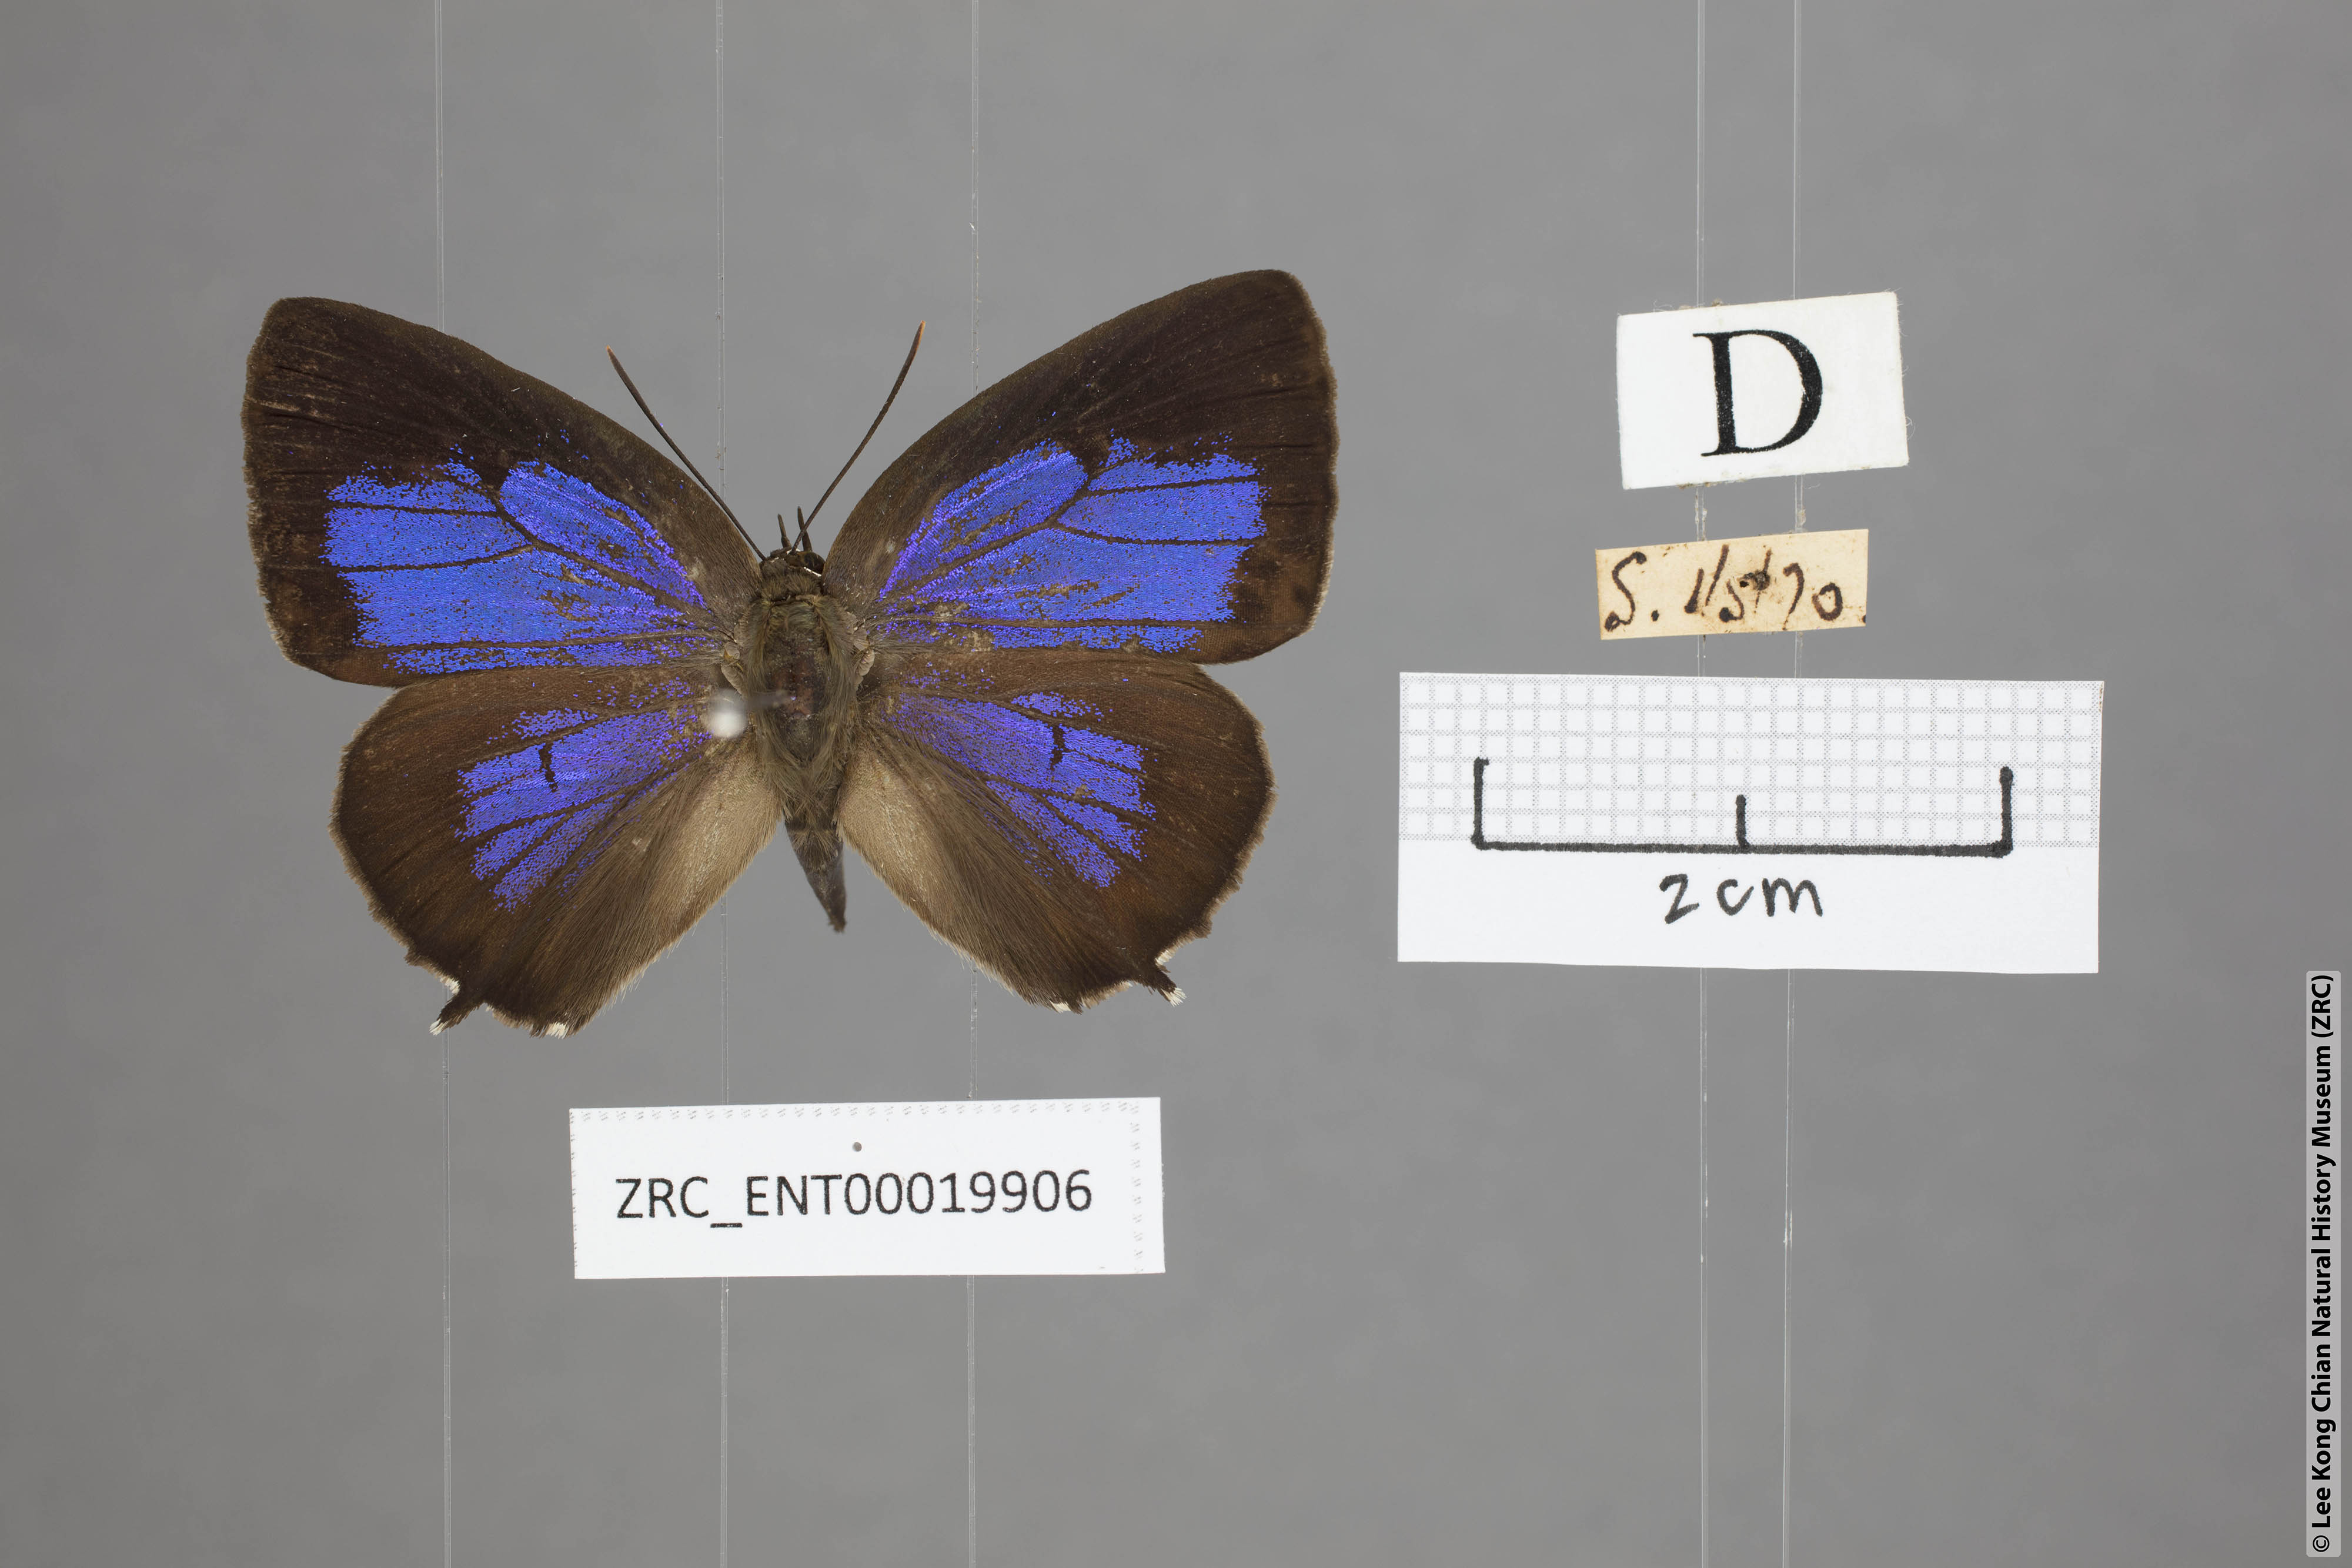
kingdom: Animalia
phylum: Arthropoda
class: Insecta
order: Lepidoptera
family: Lycaenidae
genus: Arhopala
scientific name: Arhopala trogon
